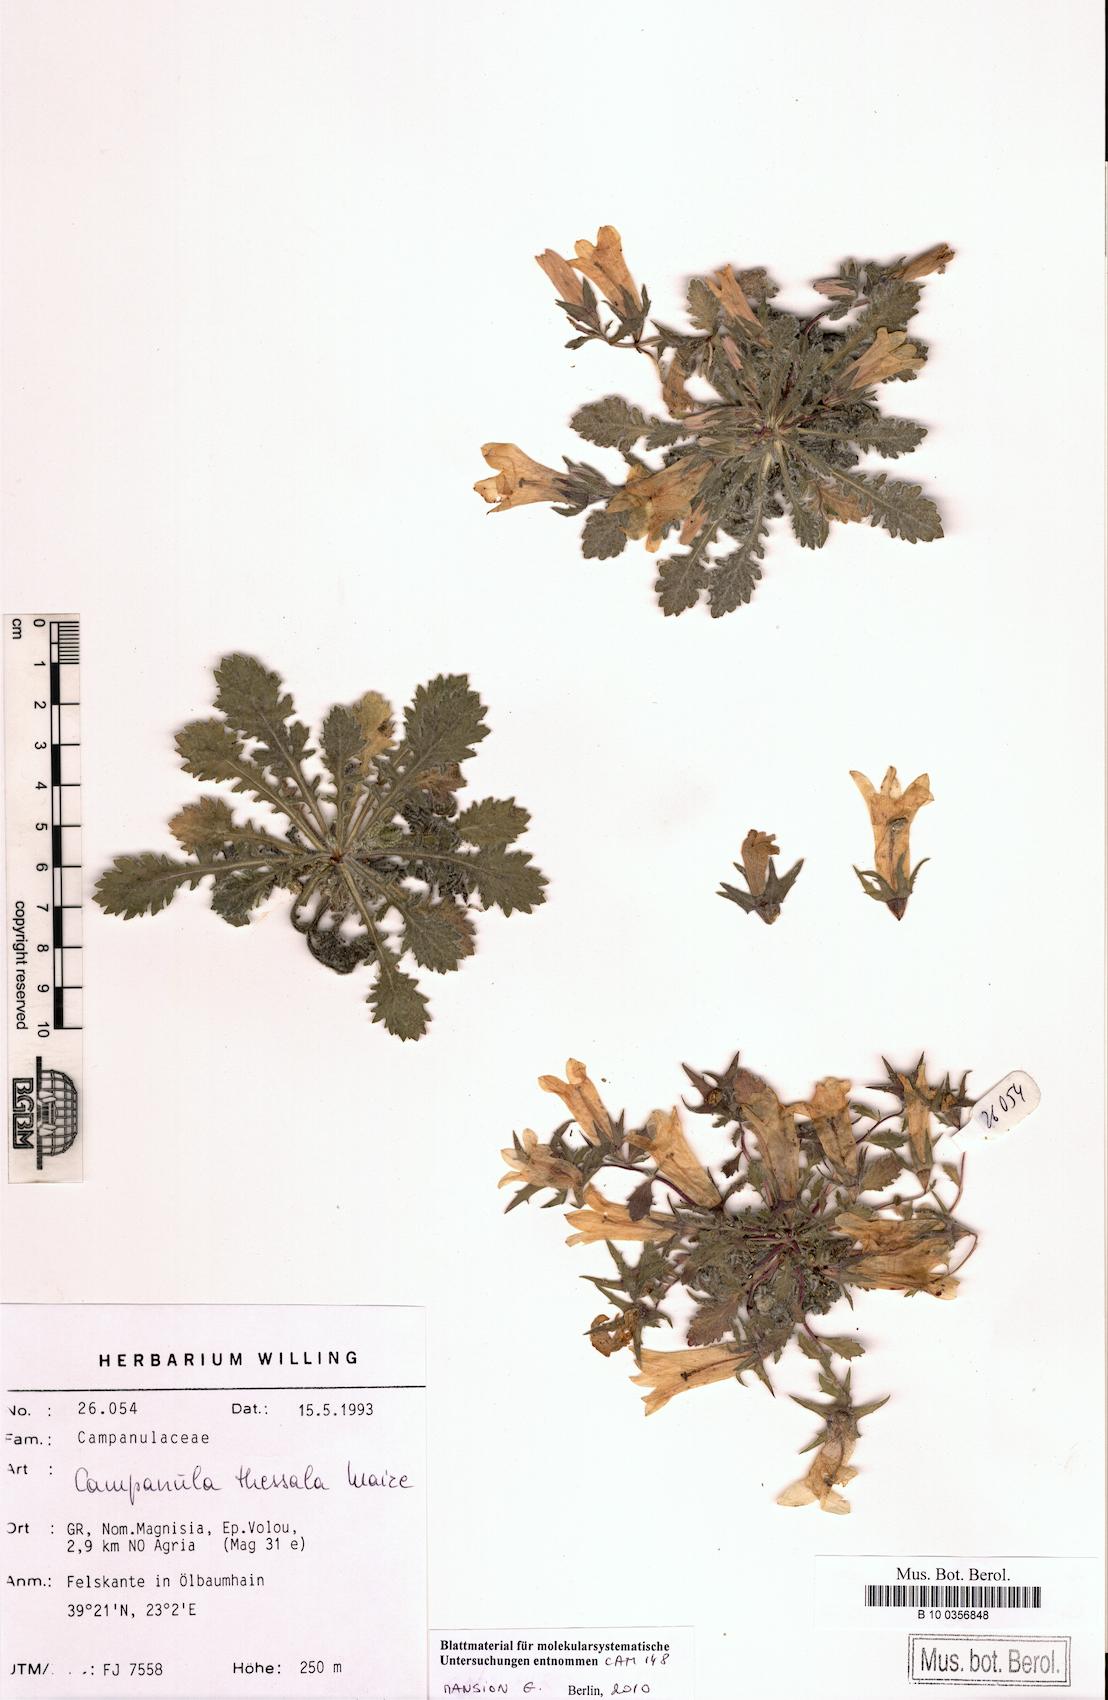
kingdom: Plantae
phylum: Tracheophyta
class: Magnoliopsida
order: Asterales
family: Campanulaceae
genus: Campanula
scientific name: Campanula
